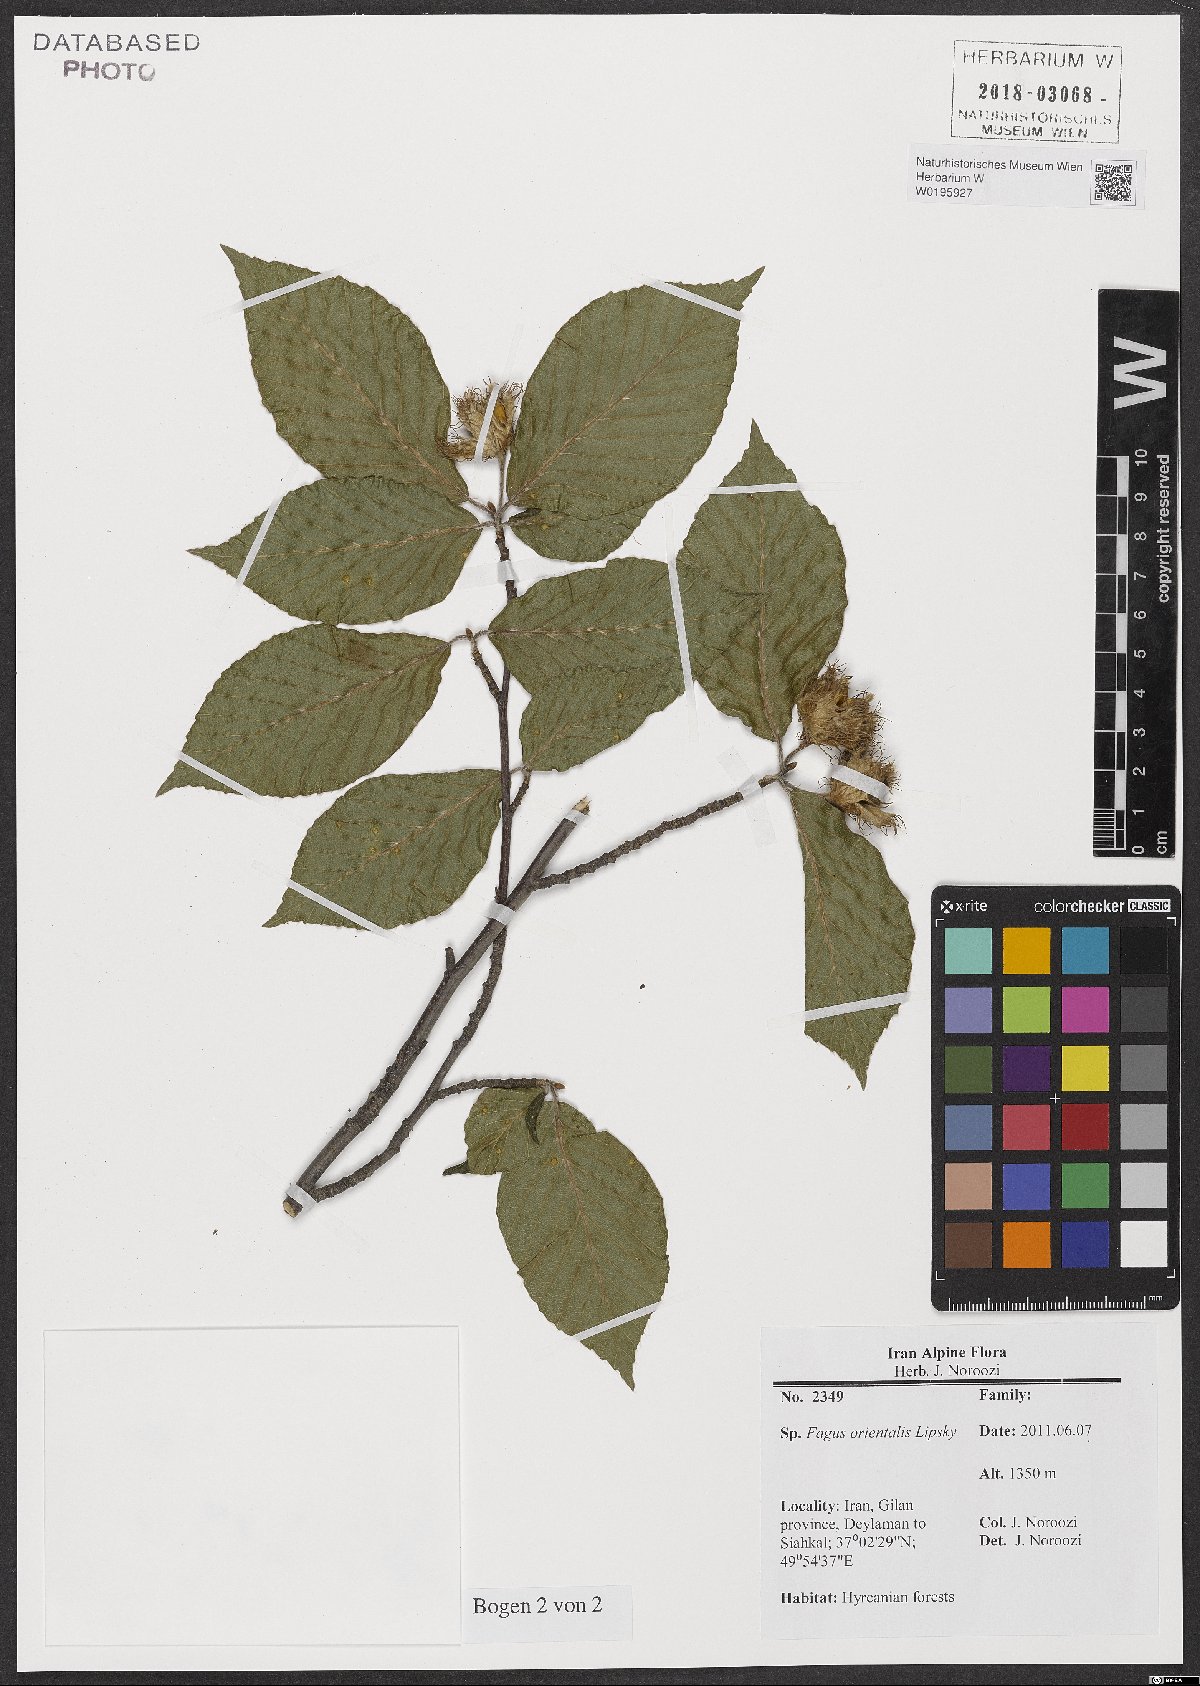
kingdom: Plantae
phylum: Tracheophyta
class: Magnoliopsida
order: Fagales
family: Fagaceae
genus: Fagus
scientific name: Fagus orientalis
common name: Oriental beech
